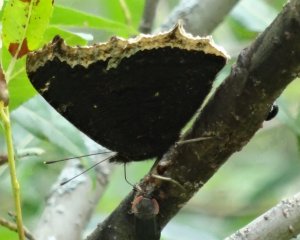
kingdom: Animalia
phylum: Arthropoda
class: Insecta
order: Lepidoptera
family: Nymphalidae
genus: Nymphalis
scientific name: Nymphalis antiopa
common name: Mourning Cloak
